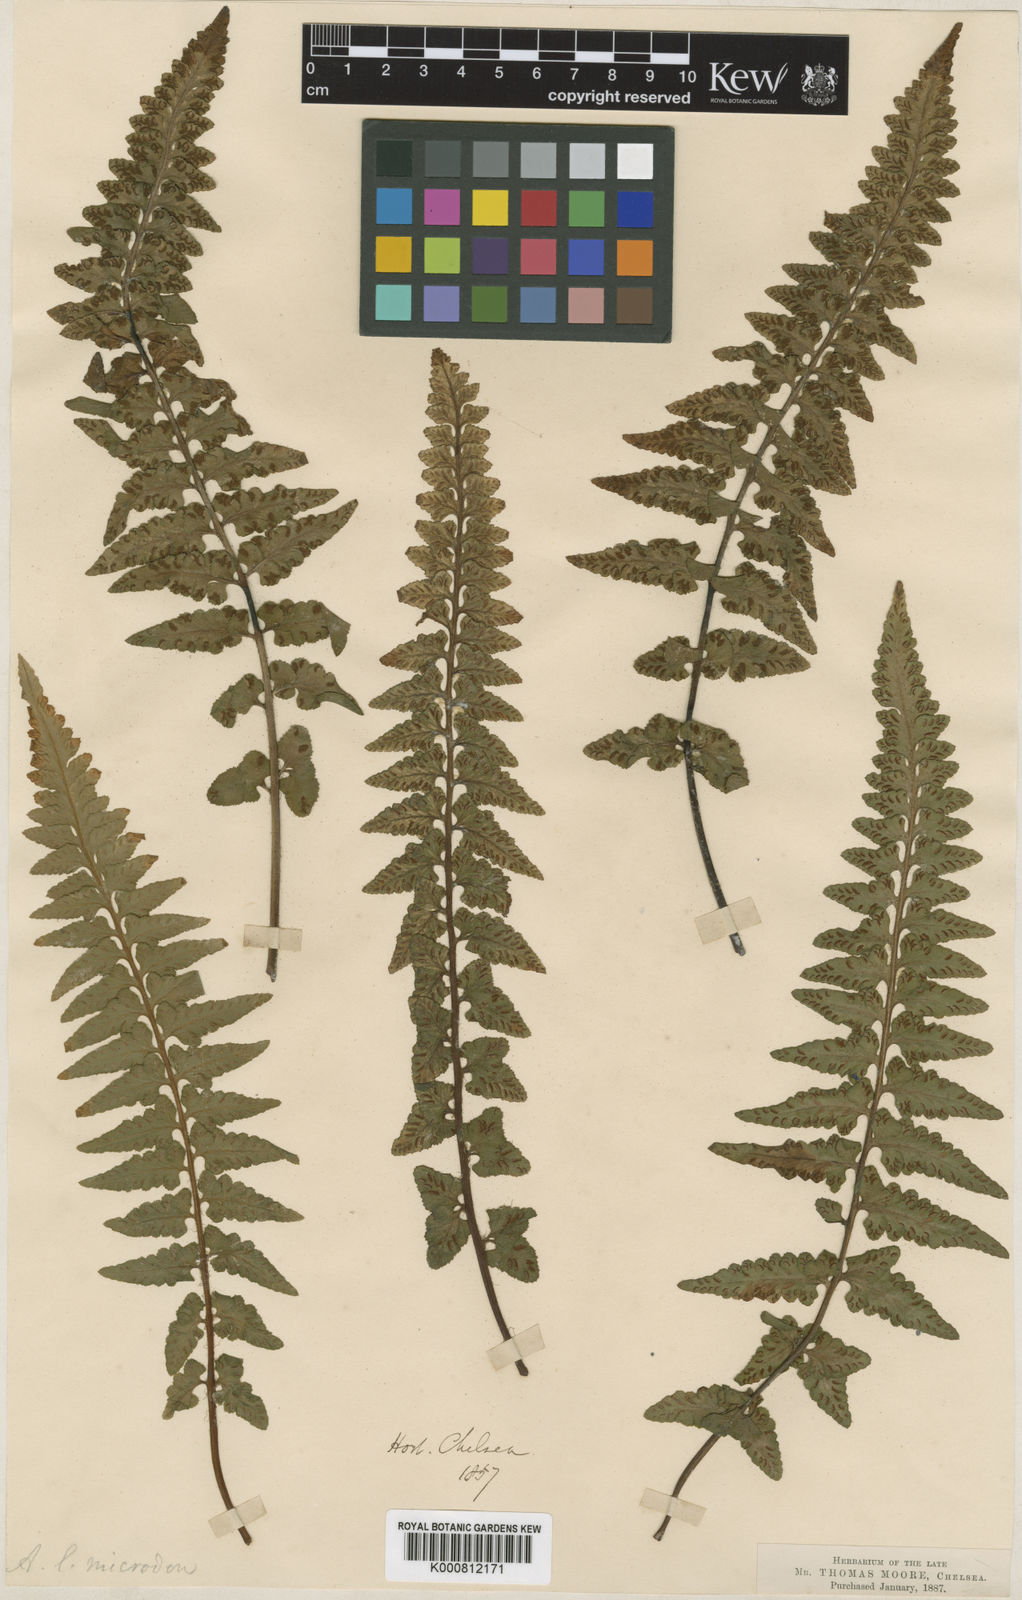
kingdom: Plantae
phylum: Tracheophyta
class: Polypodiopsida
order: Polypodiales
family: Aspleniaceae
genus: Asplenium
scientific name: Asplenium jacksonii
